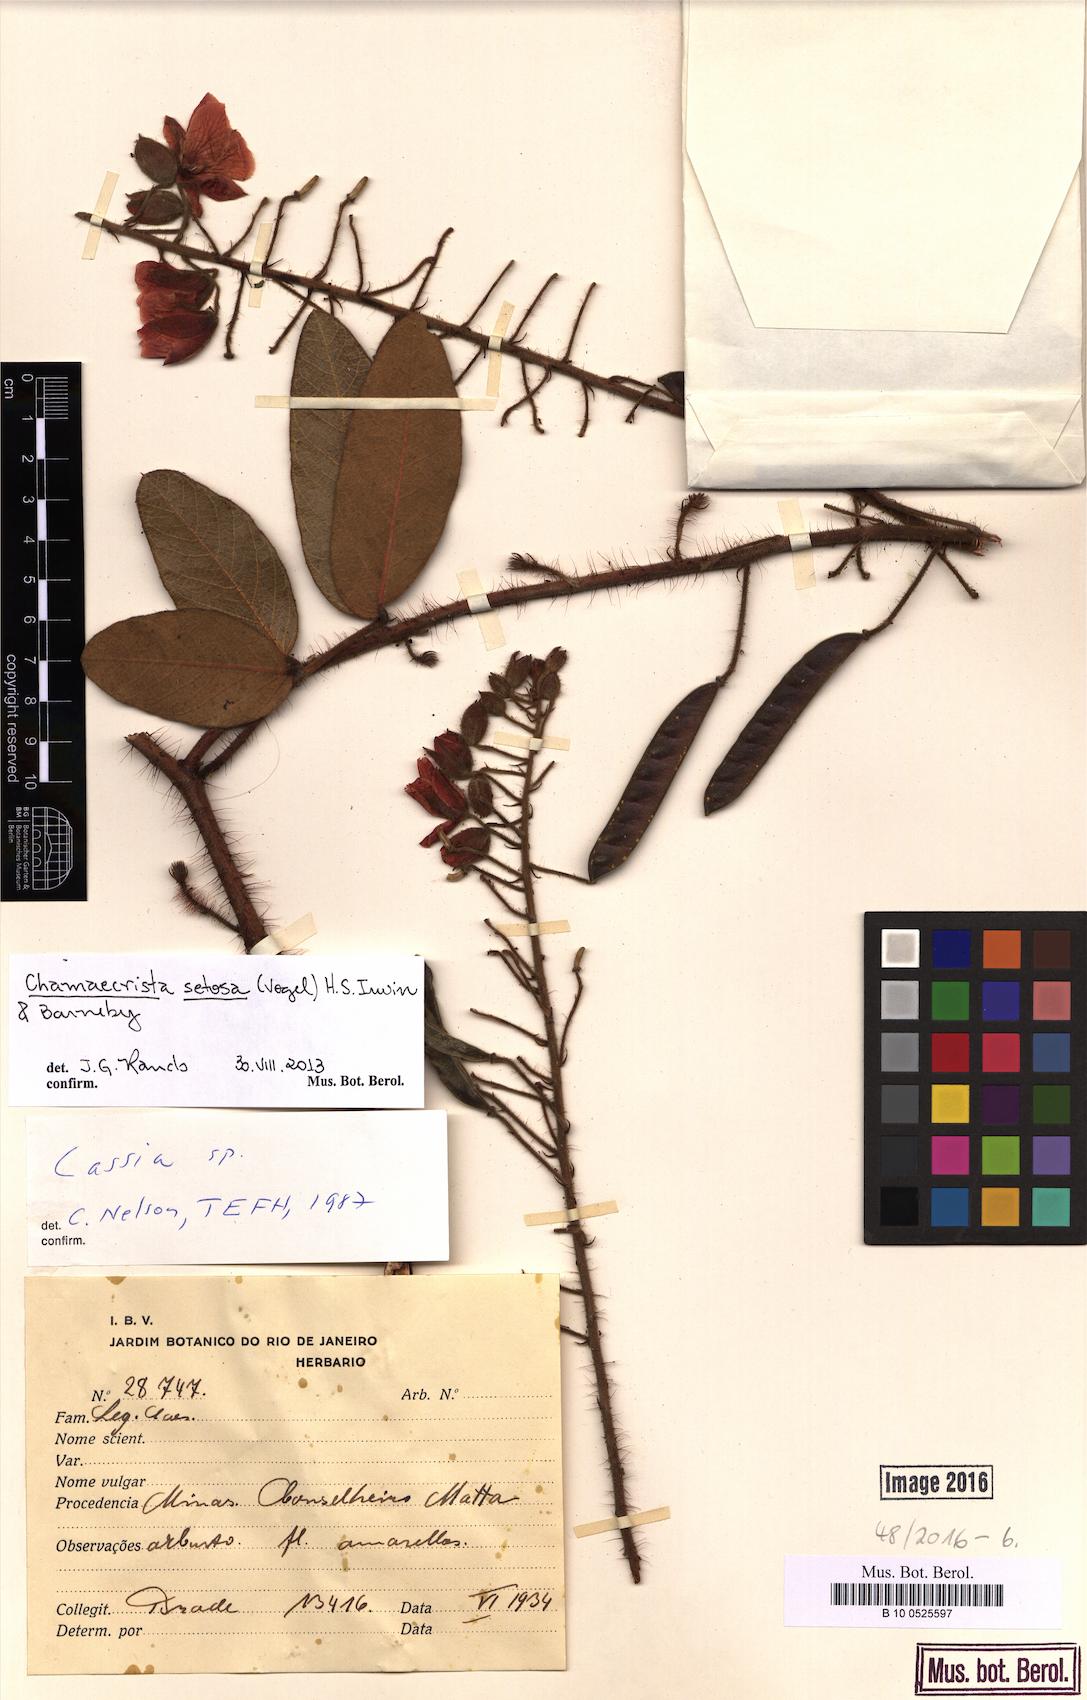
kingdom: Plantae
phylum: Tracheophyta
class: Magnoliopsida
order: Fabales
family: Fabaceae
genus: Chamaecrista
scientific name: Chamaecrista setosa
